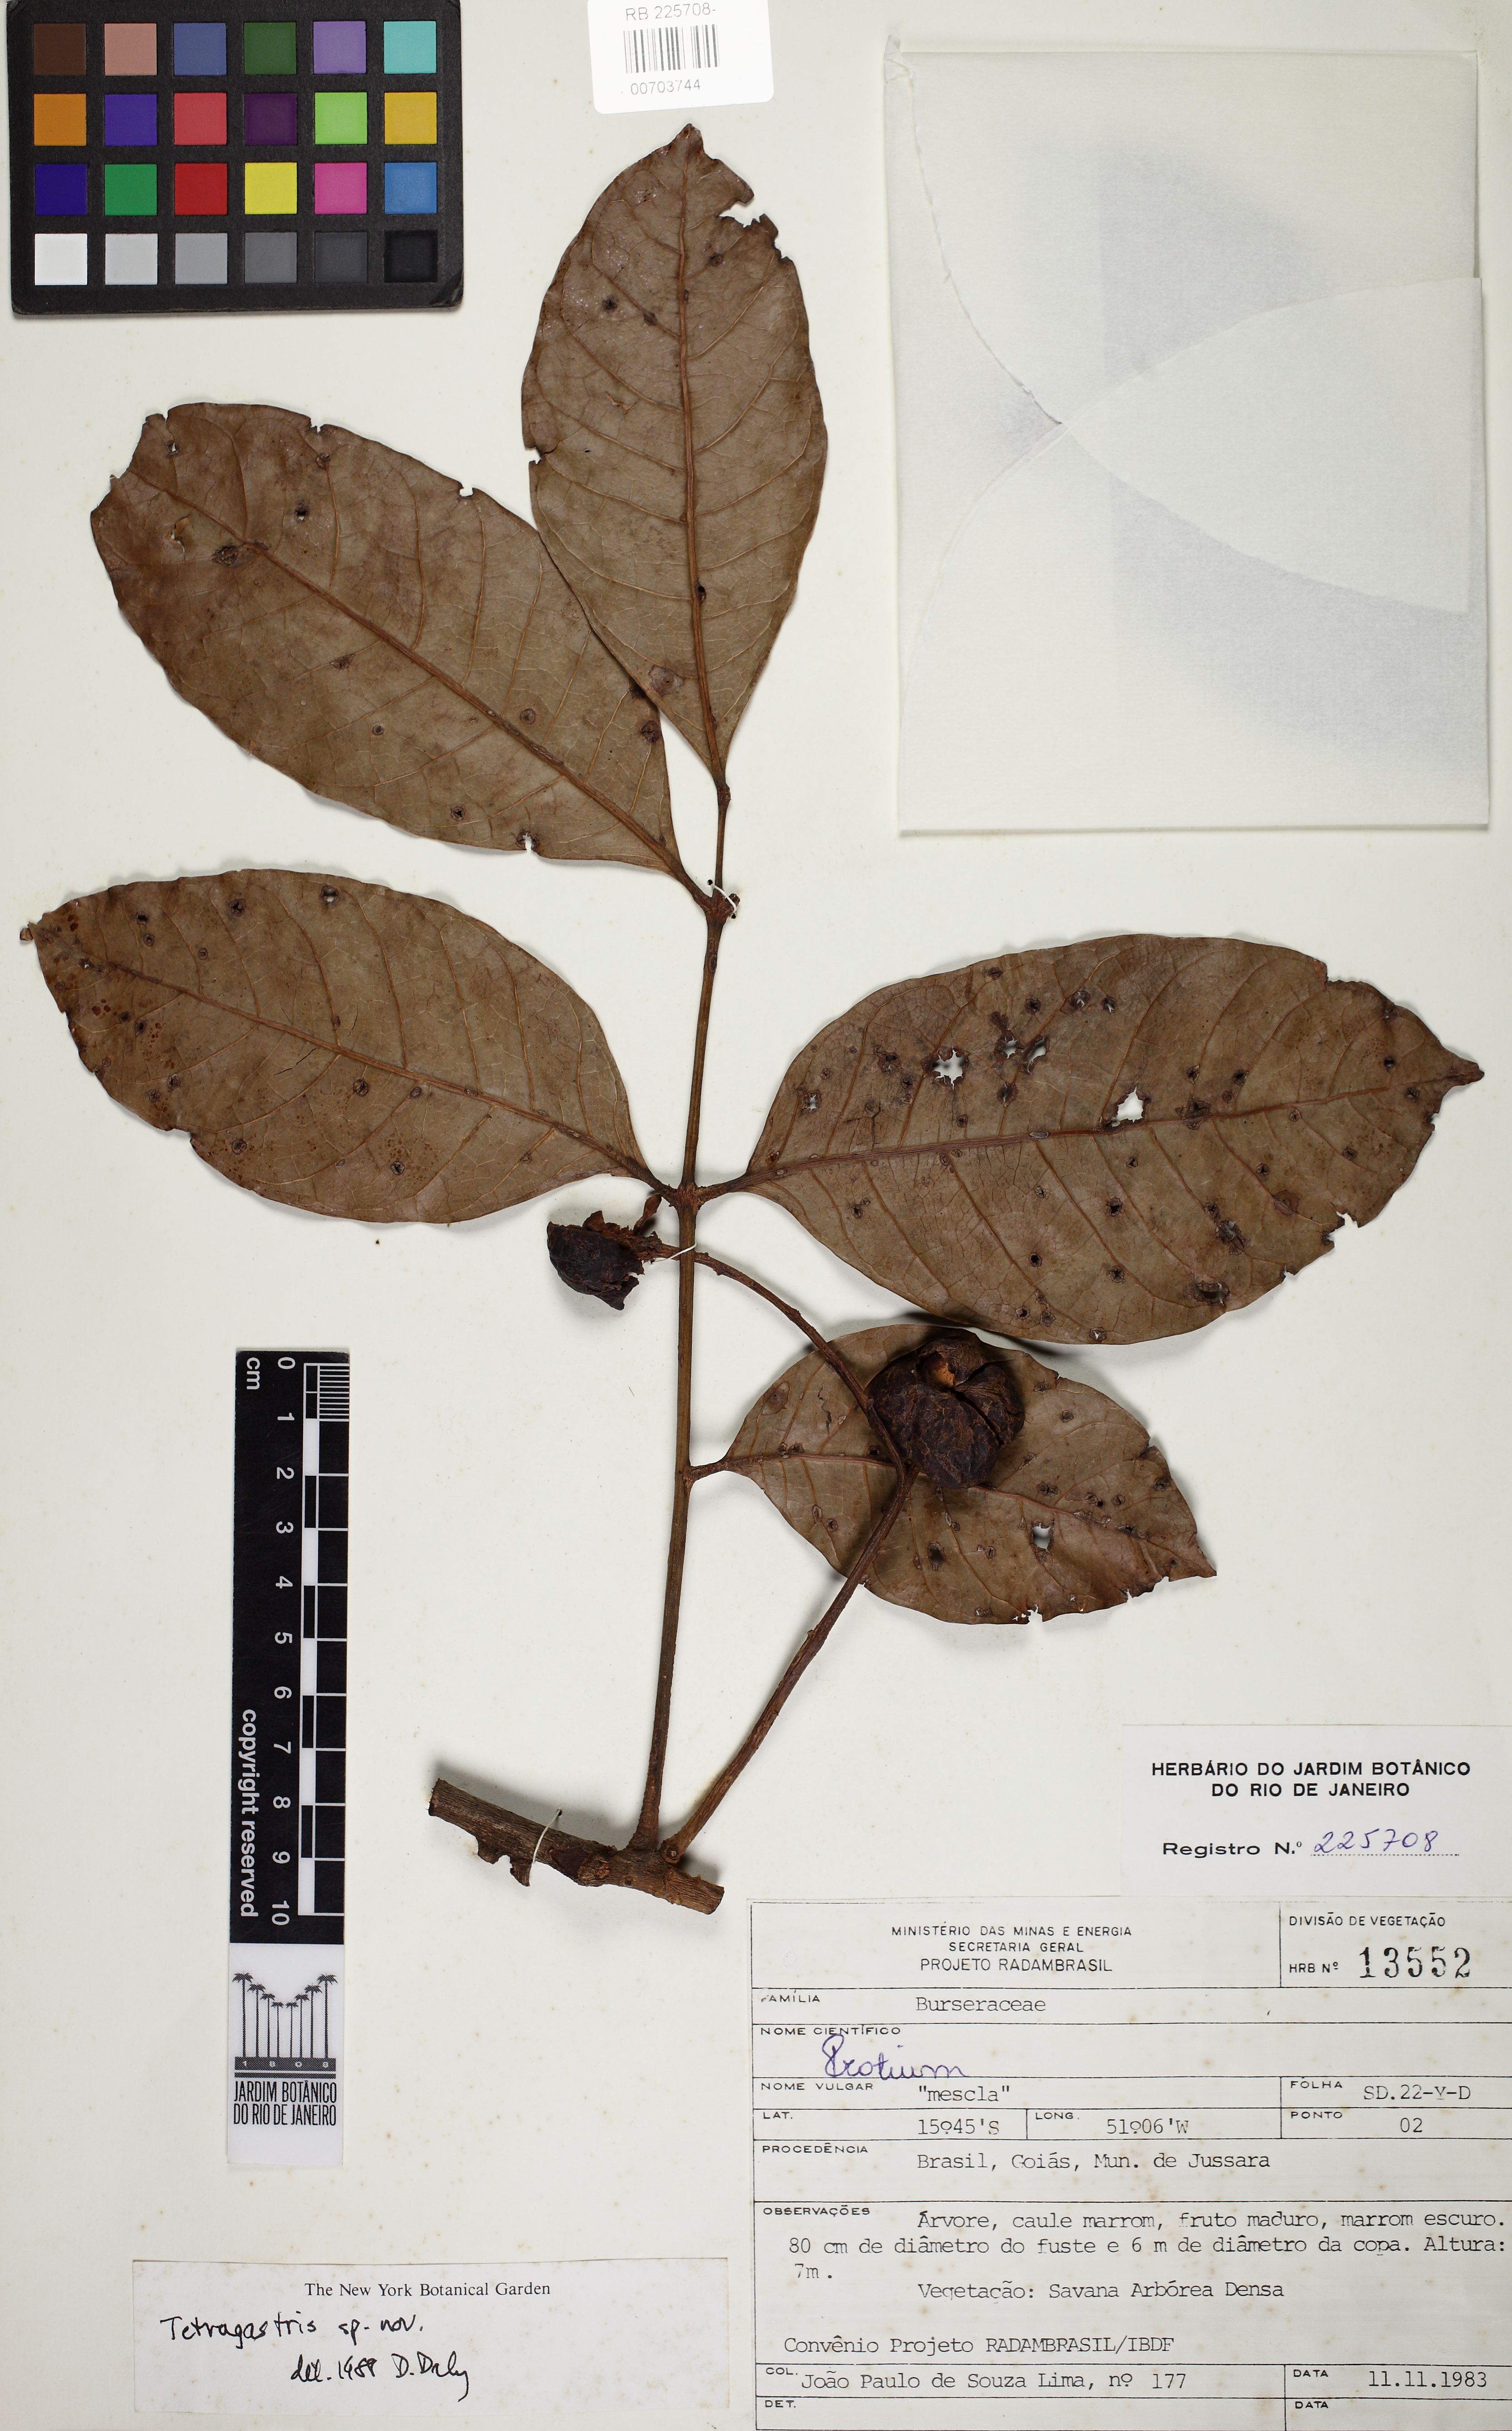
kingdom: Plantae
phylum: Tracheophyta
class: Magnoliopsida
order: Sapindales
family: Burseraceae
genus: Protium
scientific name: Protium cerradicola
